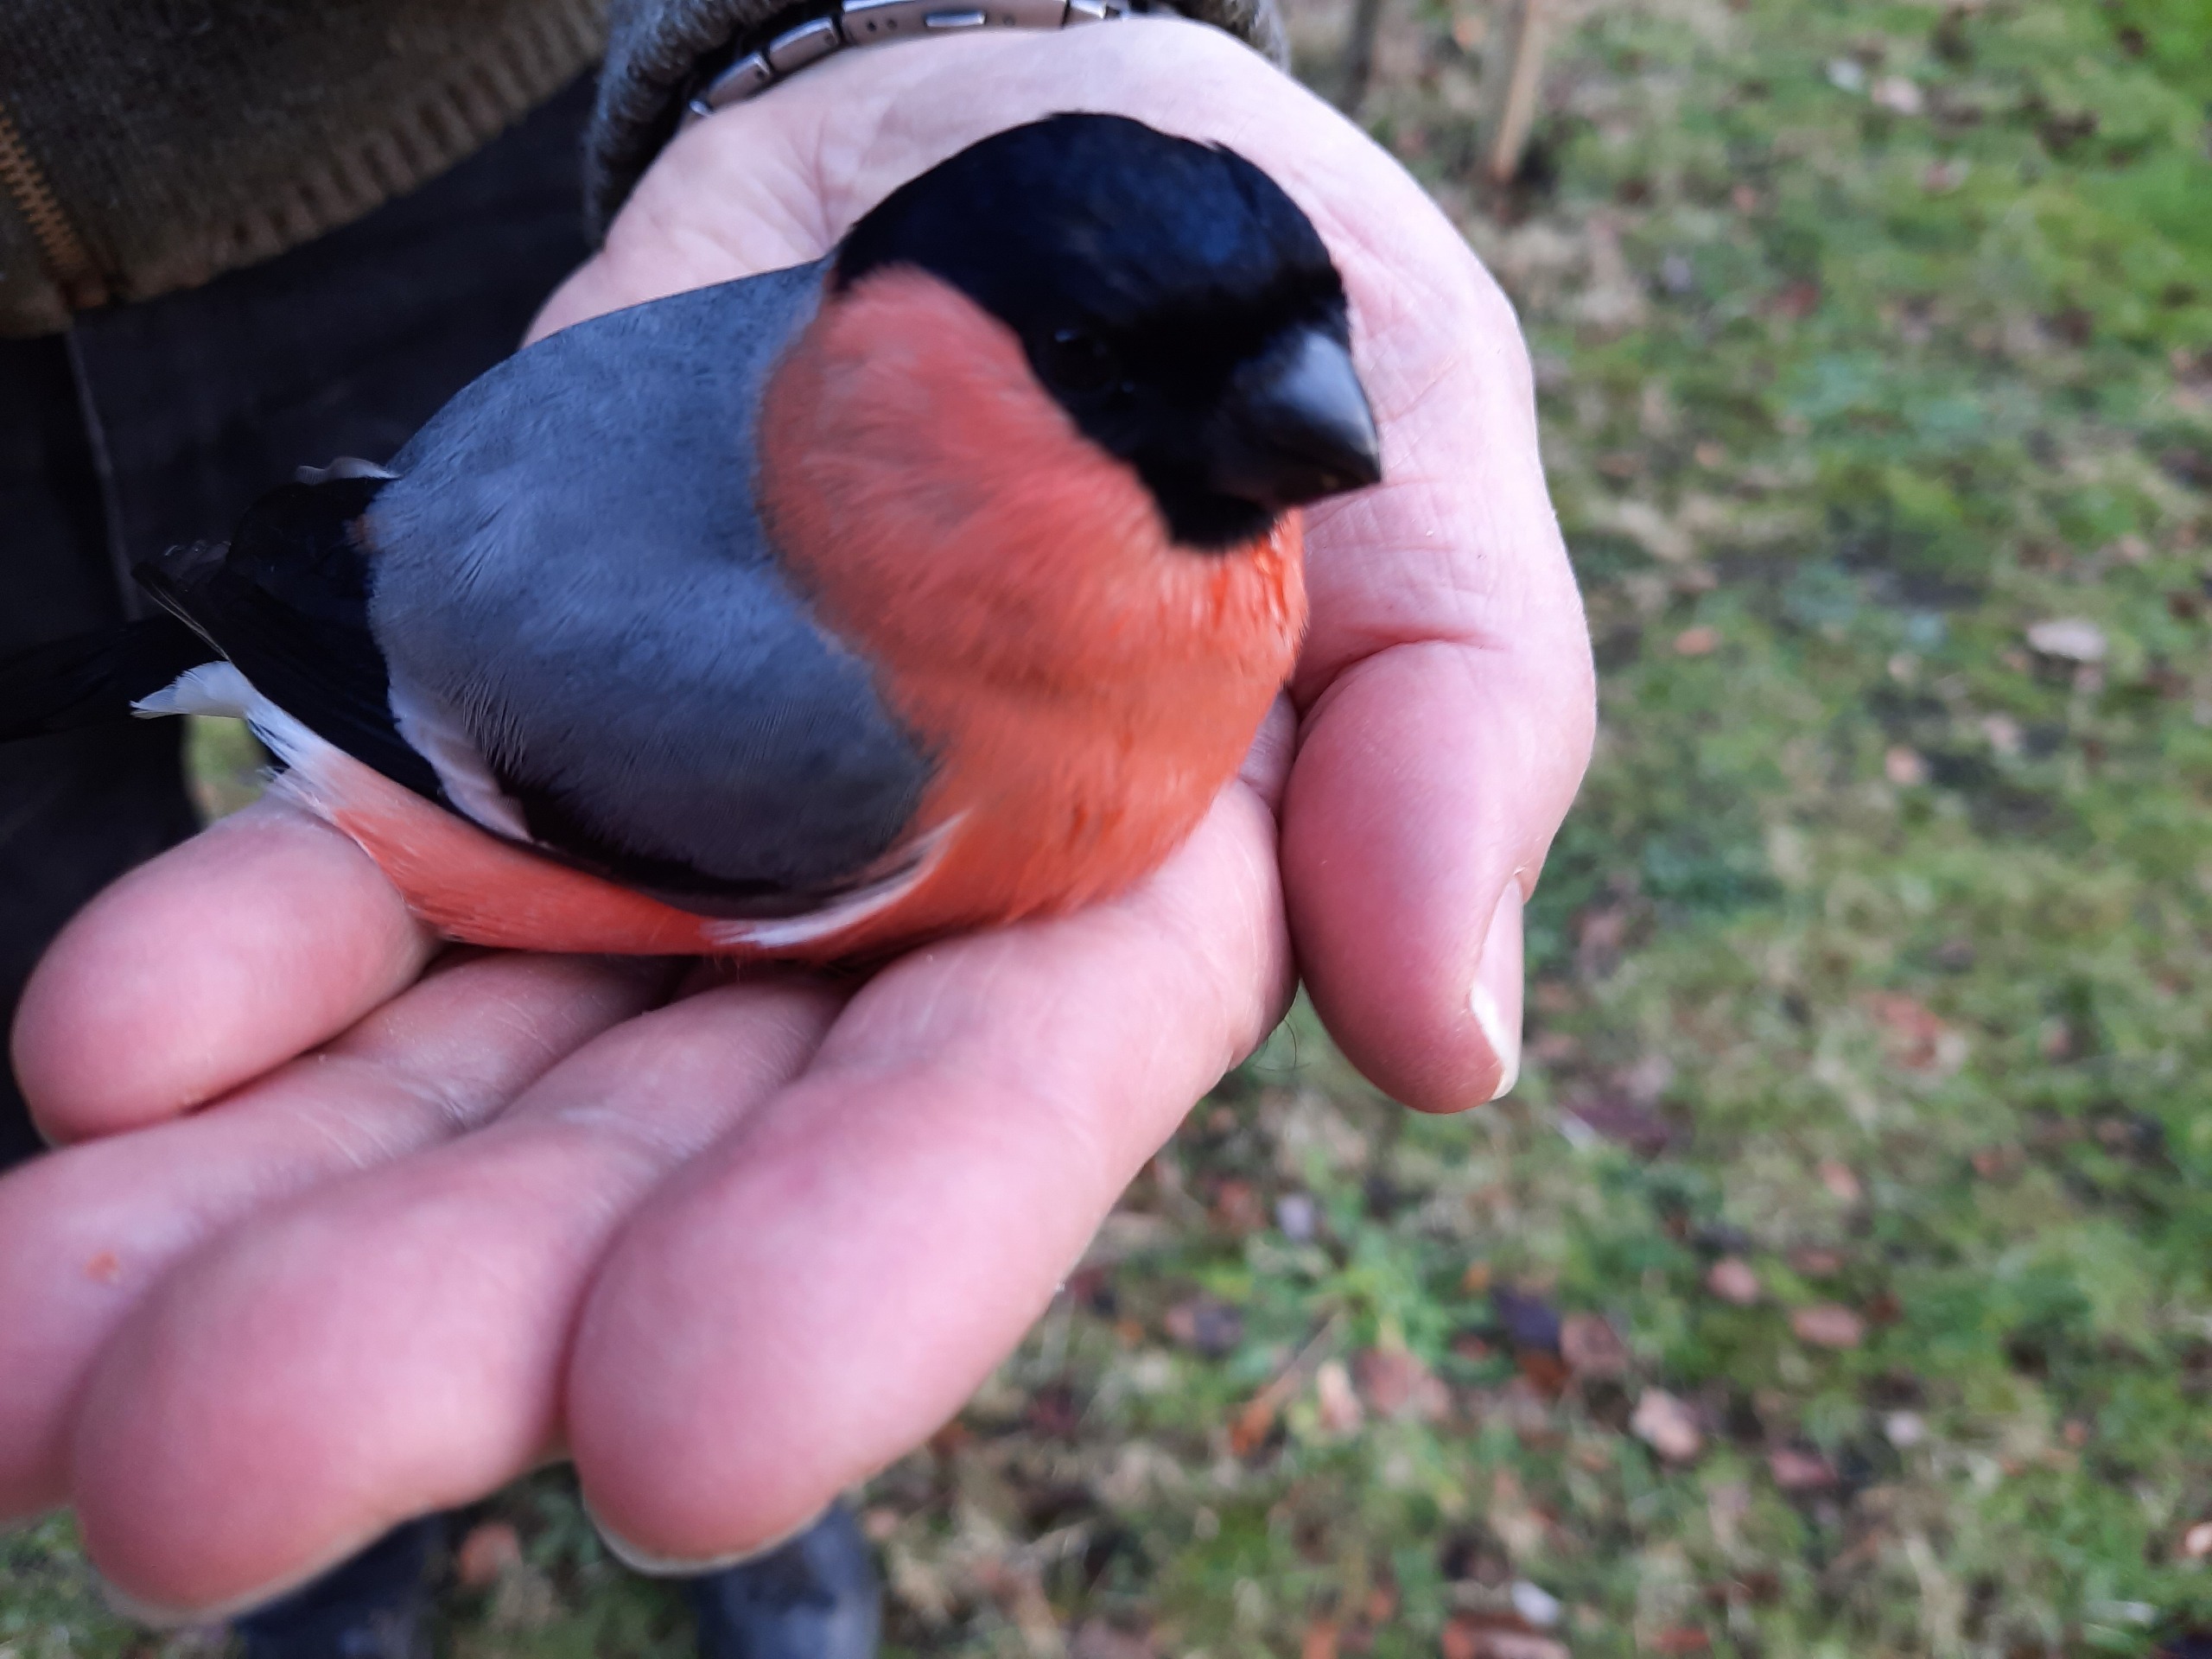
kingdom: Animalia
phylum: Chordata
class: Aves
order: Passeriformes
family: Fringillidae
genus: Pyrrhula
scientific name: Pyrrhula pyrrhula
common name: Dompap
